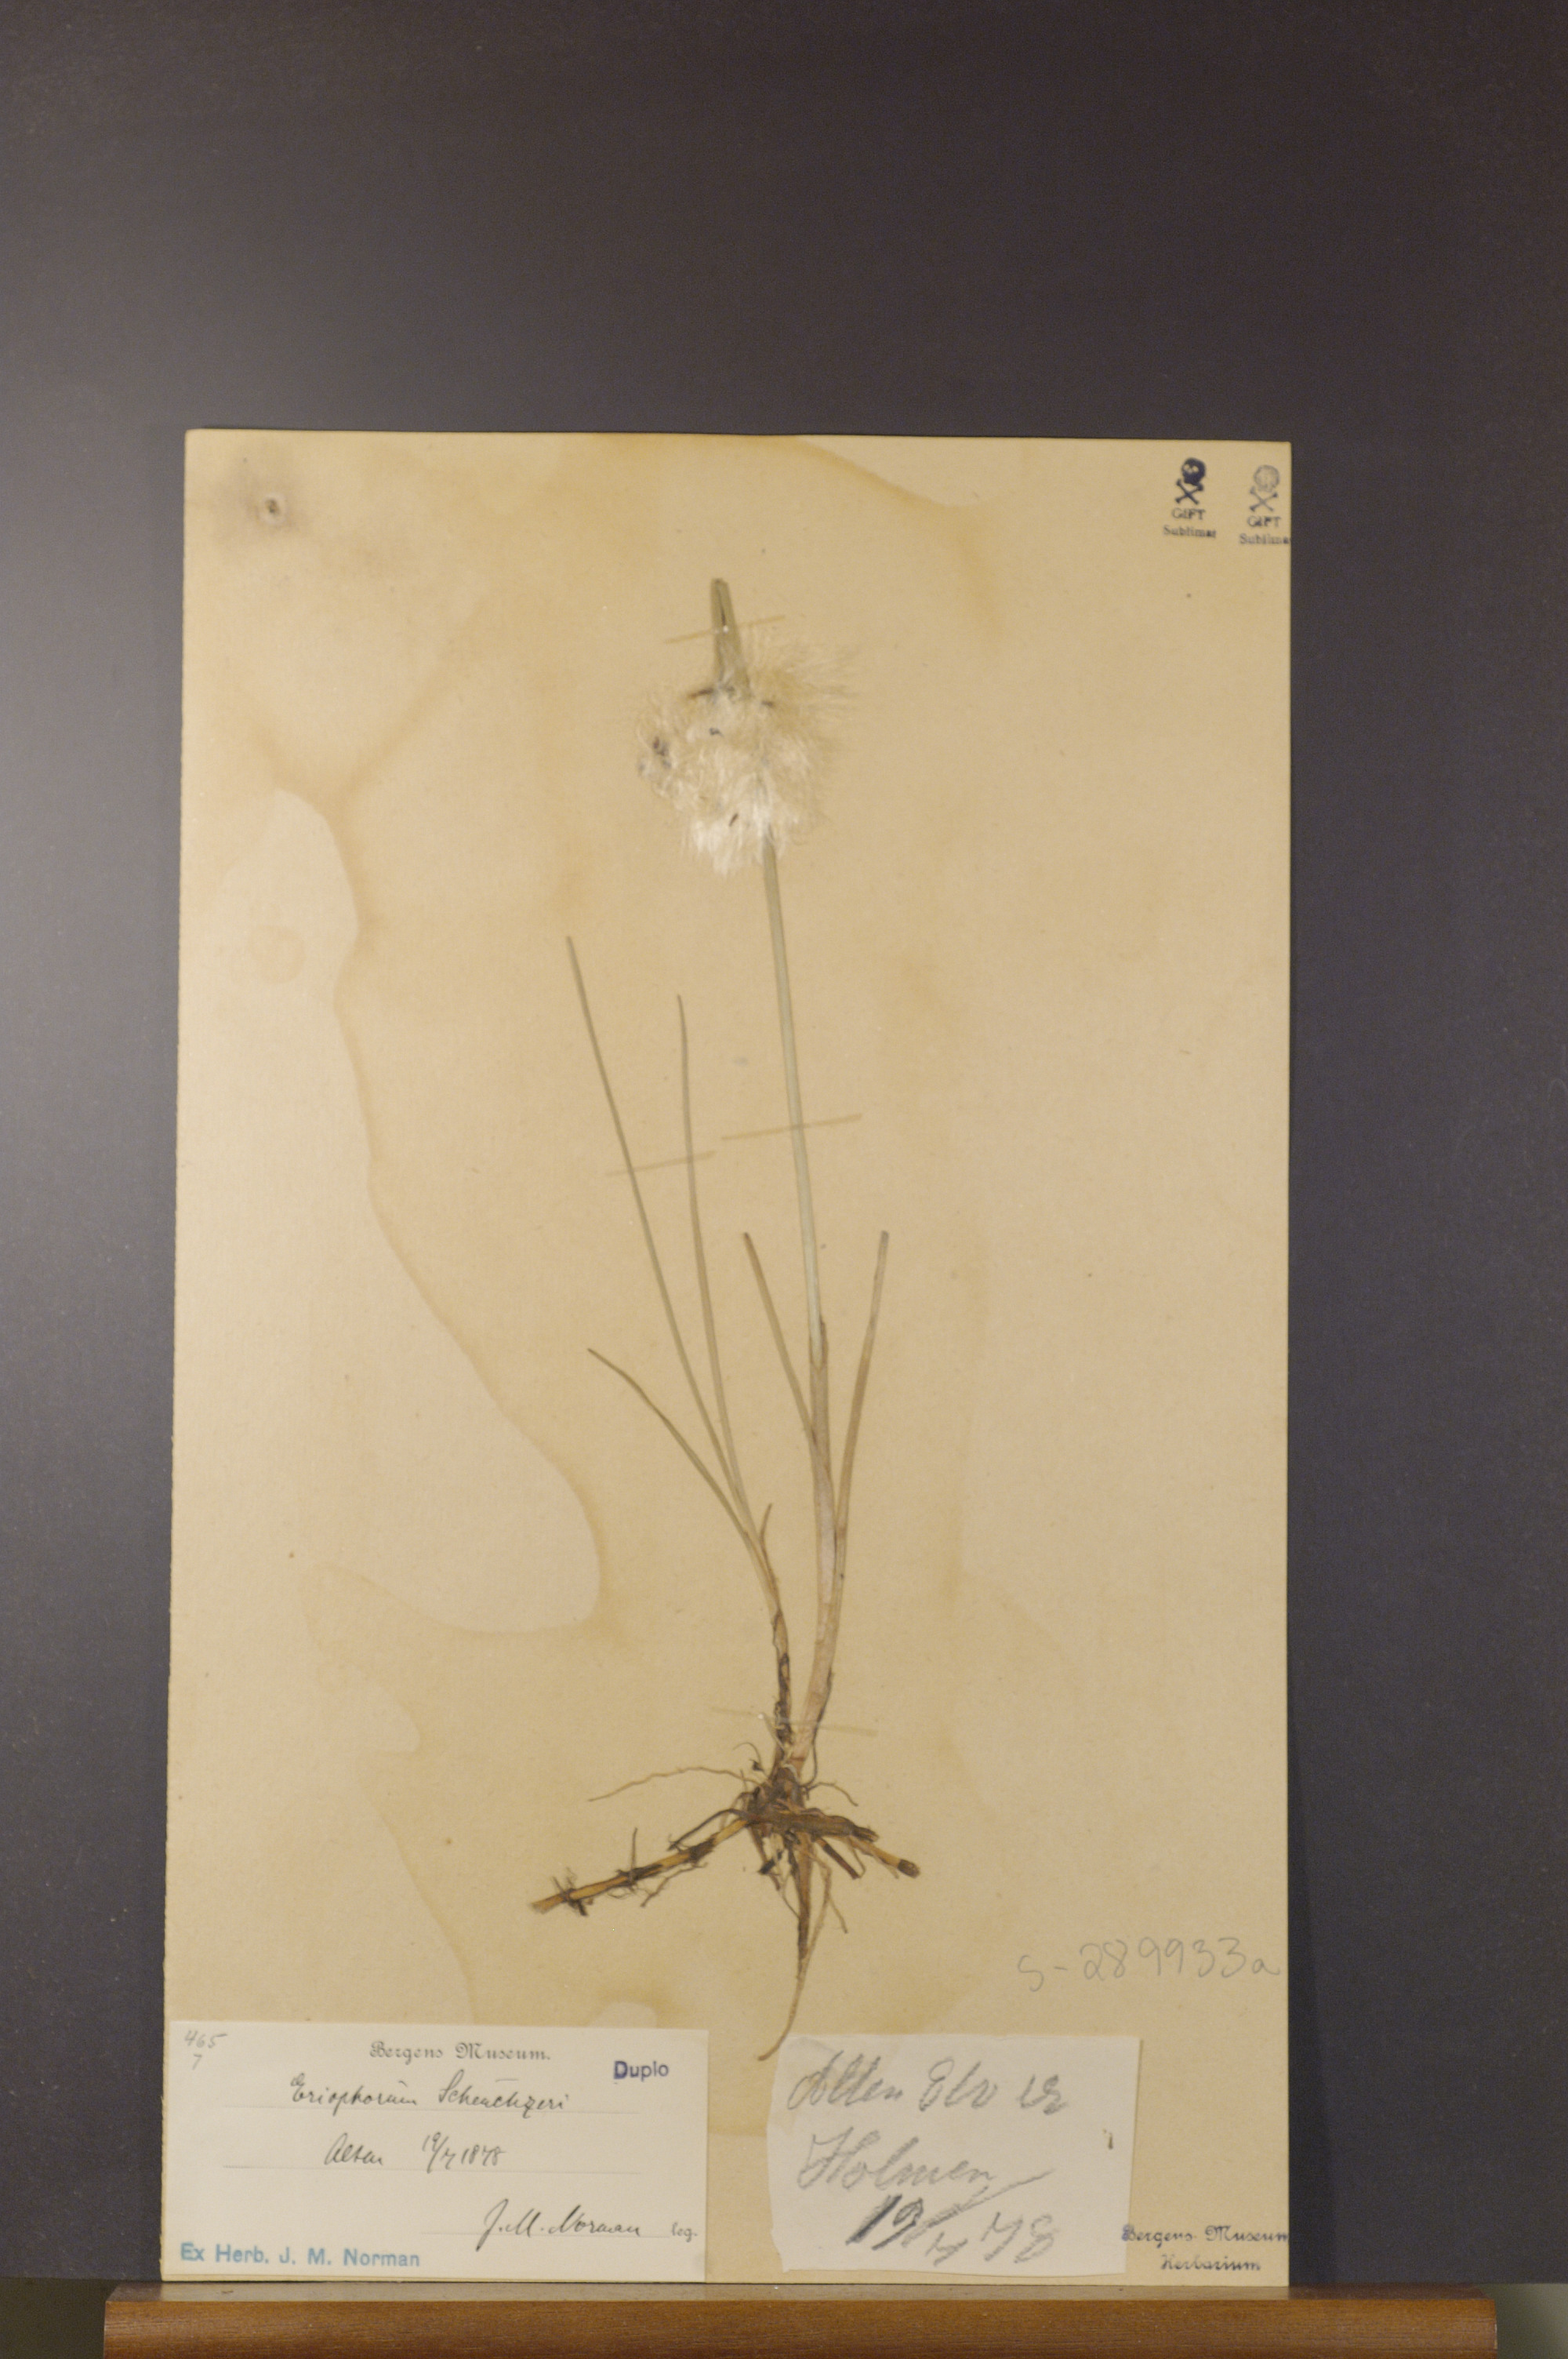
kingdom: Plantae
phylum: Tracheophyta
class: Liliopsida
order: Poales
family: Cyperaceae
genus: Eriophorum
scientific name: Eriophorum scheuchzeri
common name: Scheuchzer's cottongrass
